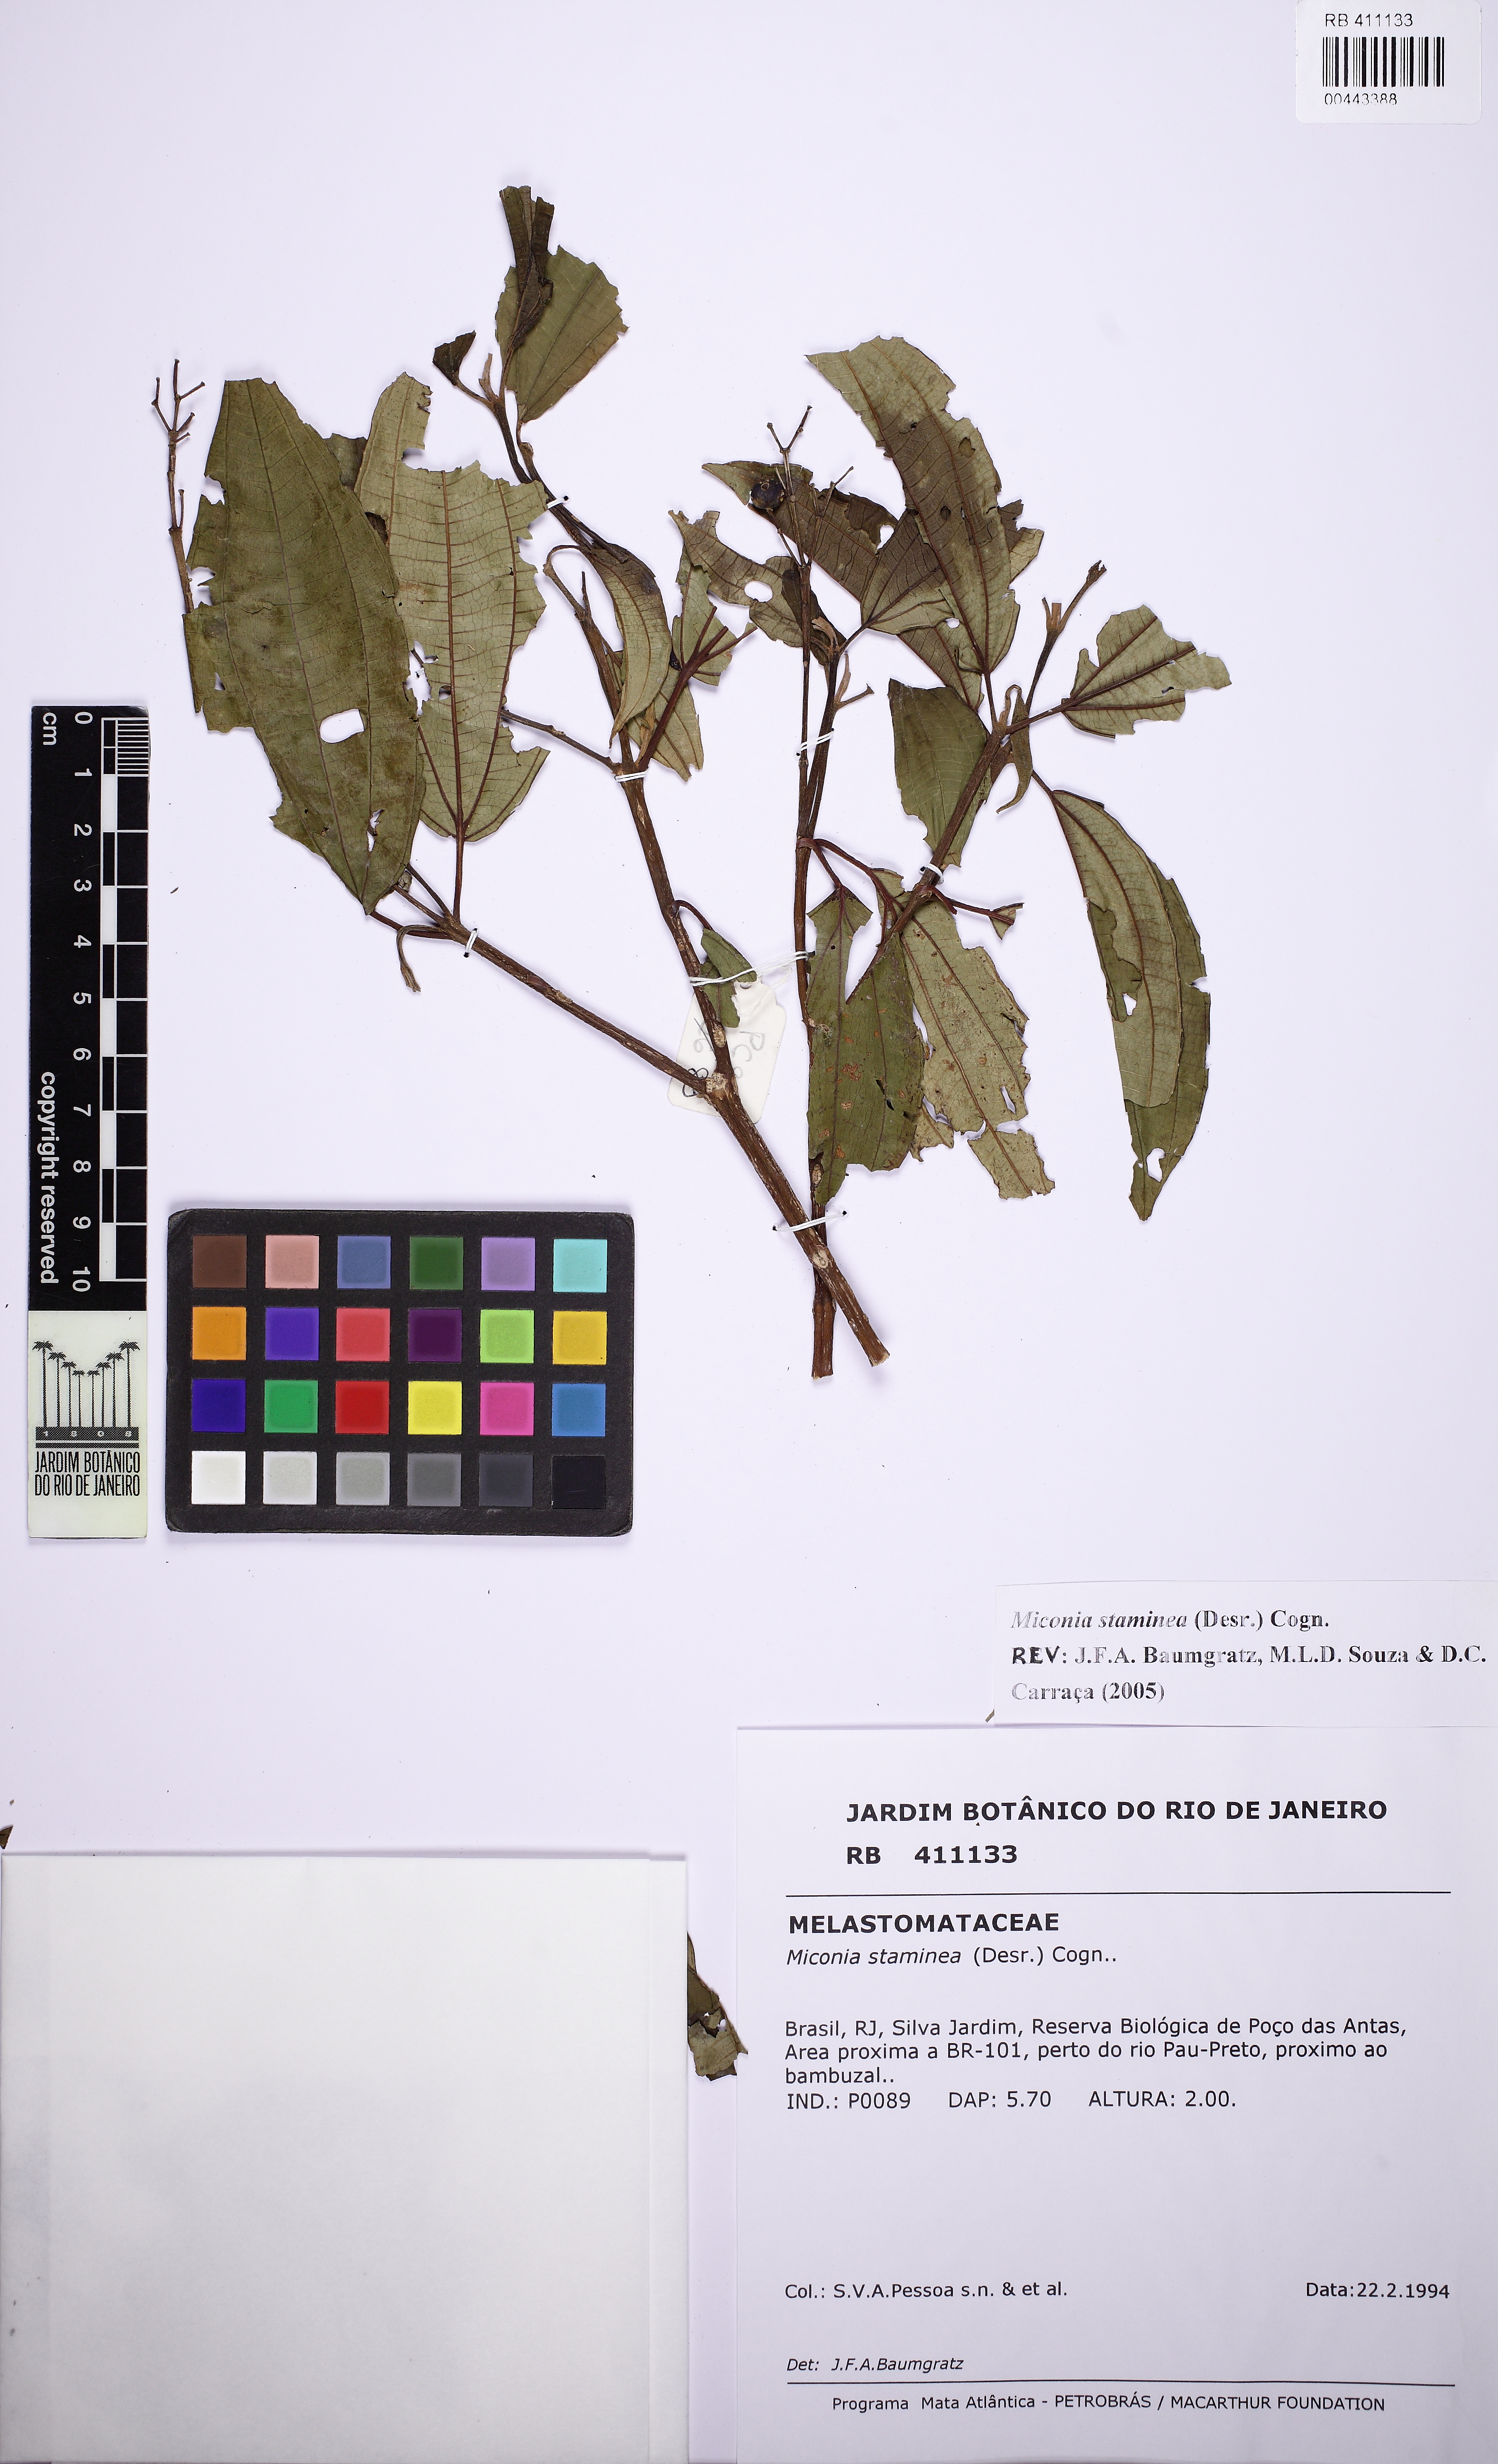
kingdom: Plantae
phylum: Tracheophyta
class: Magnoliopsida
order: Myrtales
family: Melastomataceae
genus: Miconia
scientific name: Miconia staminea
